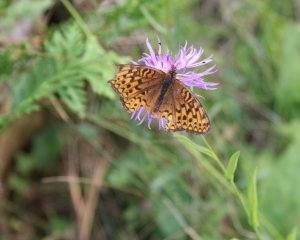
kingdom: Animalia
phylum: Arthropoda
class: Insecta
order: Lepidoptera
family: Nymphalidae
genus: Speyeria
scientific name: Speyeria atlantis
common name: Atlantis Fritillary
